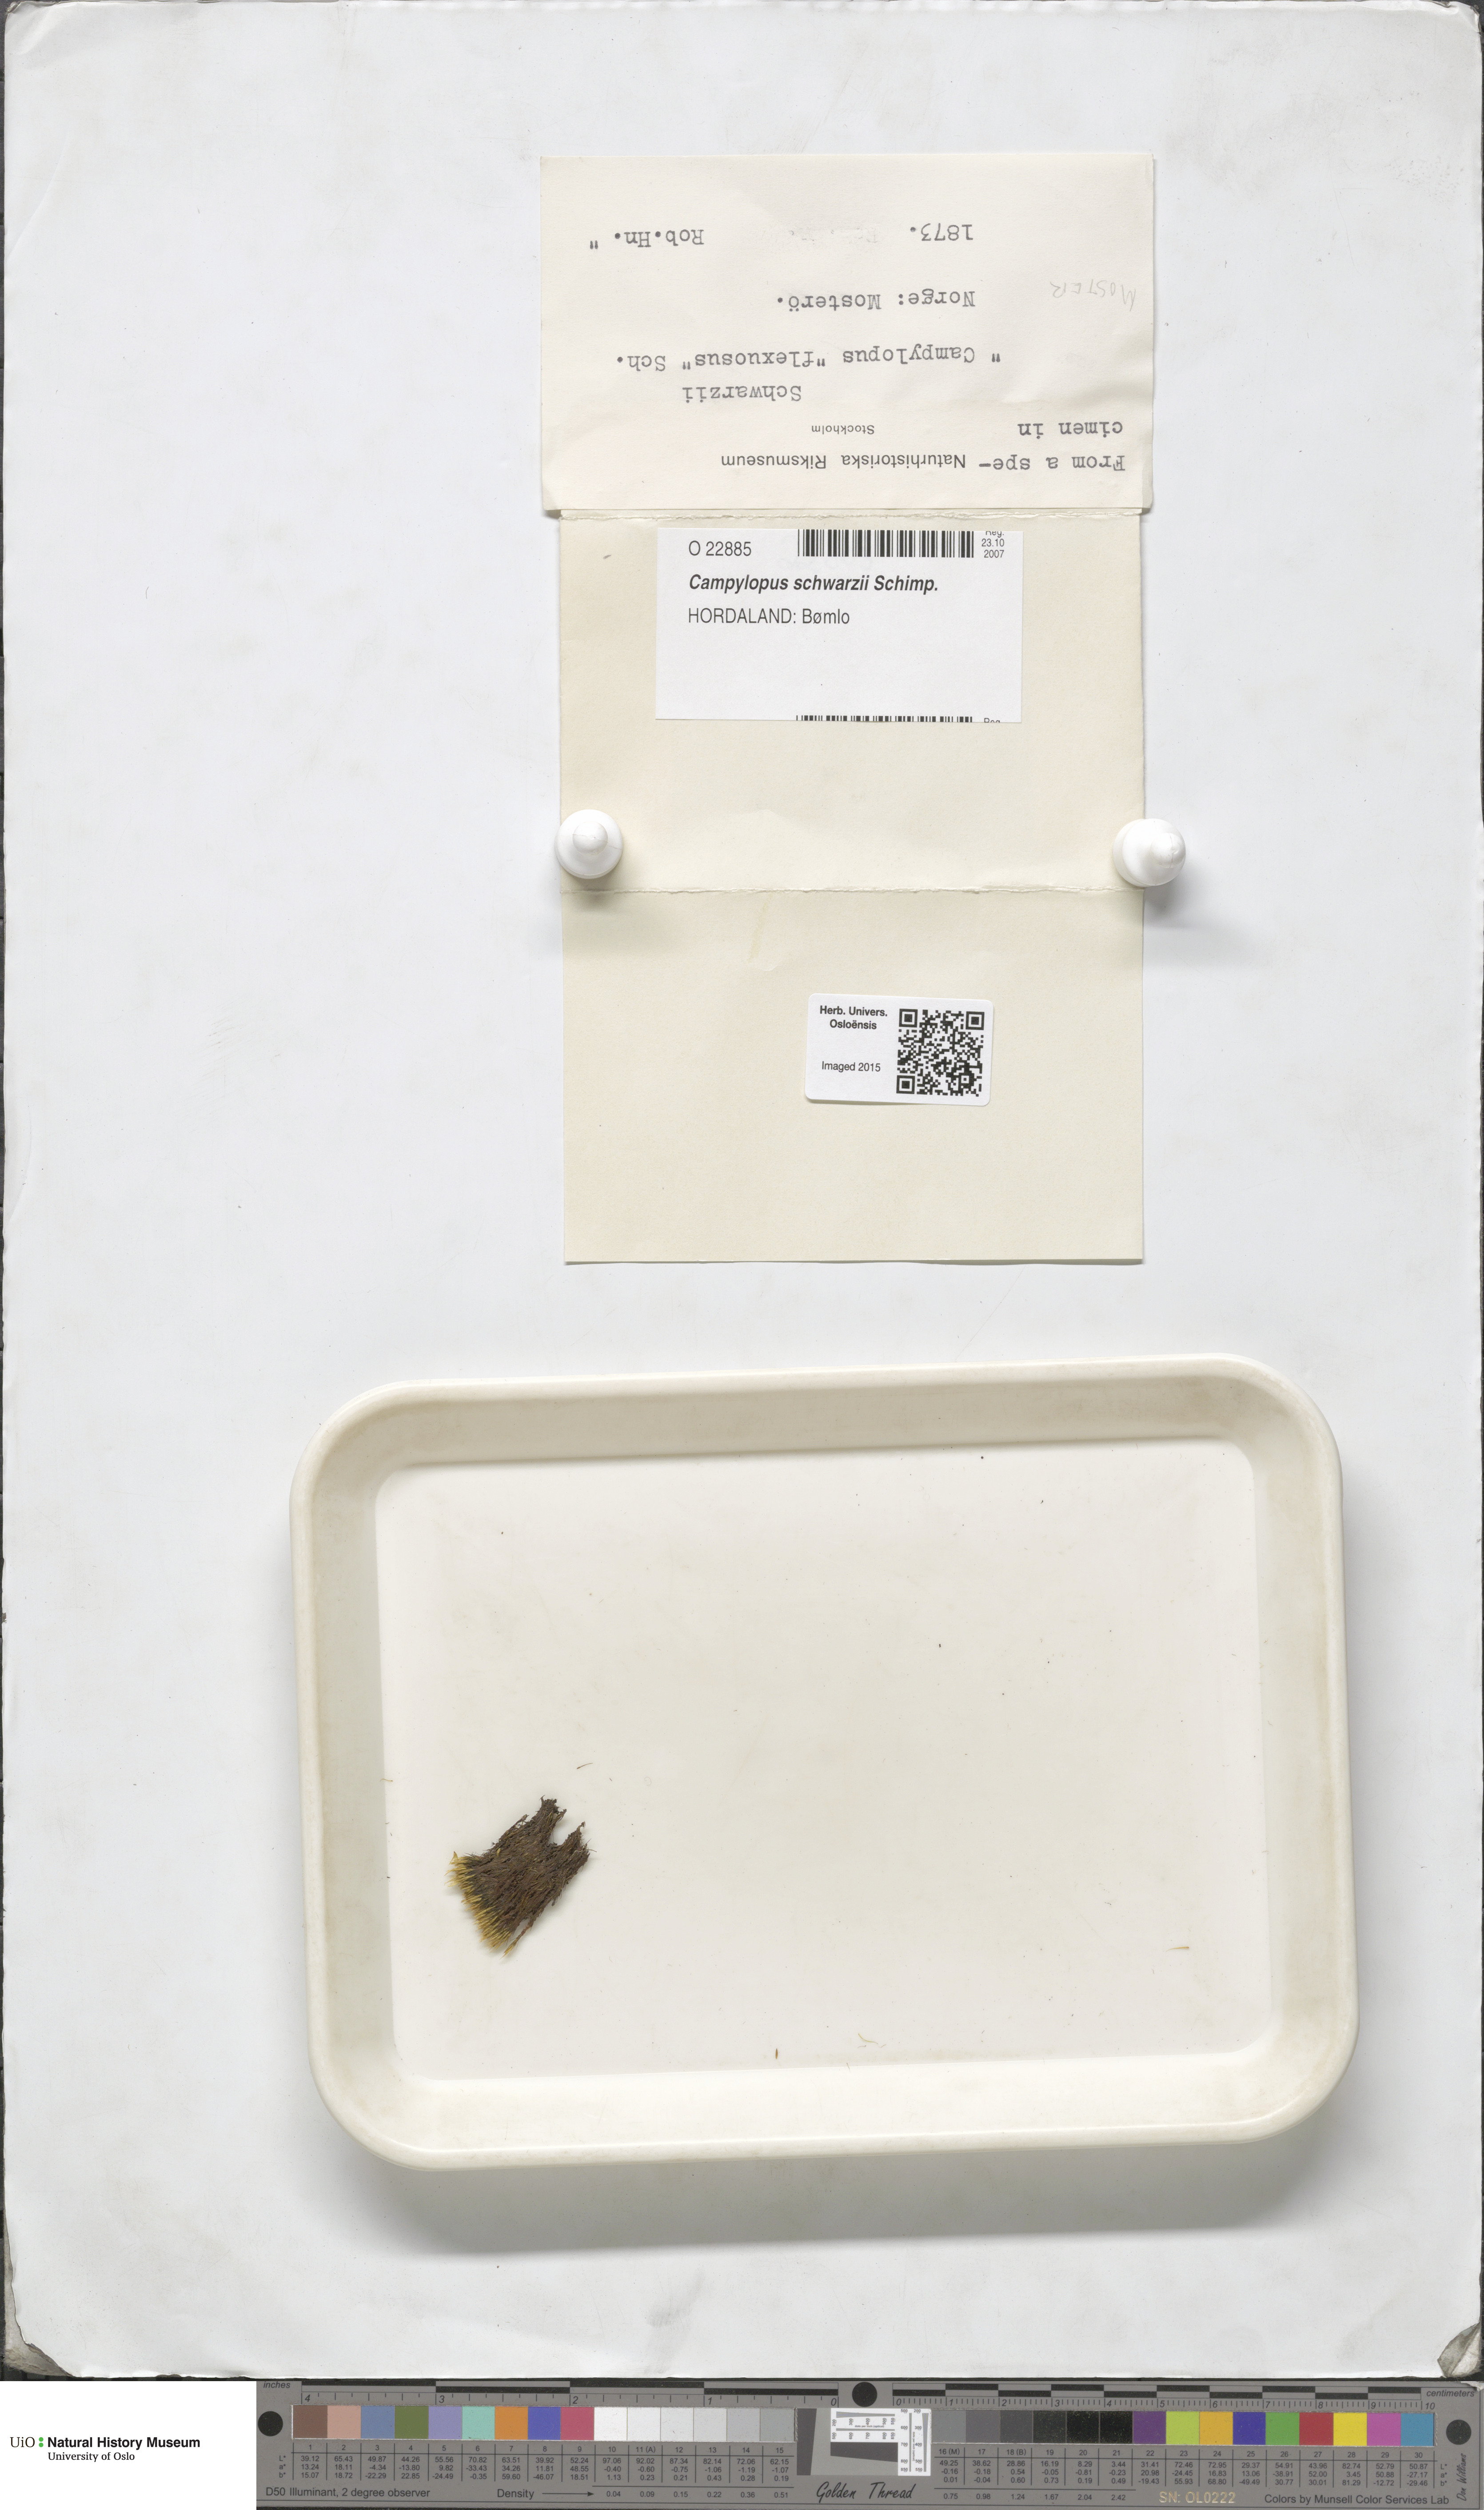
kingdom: Plantae
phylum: Bryophyta
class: Bryopsida
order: Dicranales
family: Leucobryaceae
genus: Campylopus
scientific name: Campylopus gracilis
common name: Schwarz's swan-neck moss
